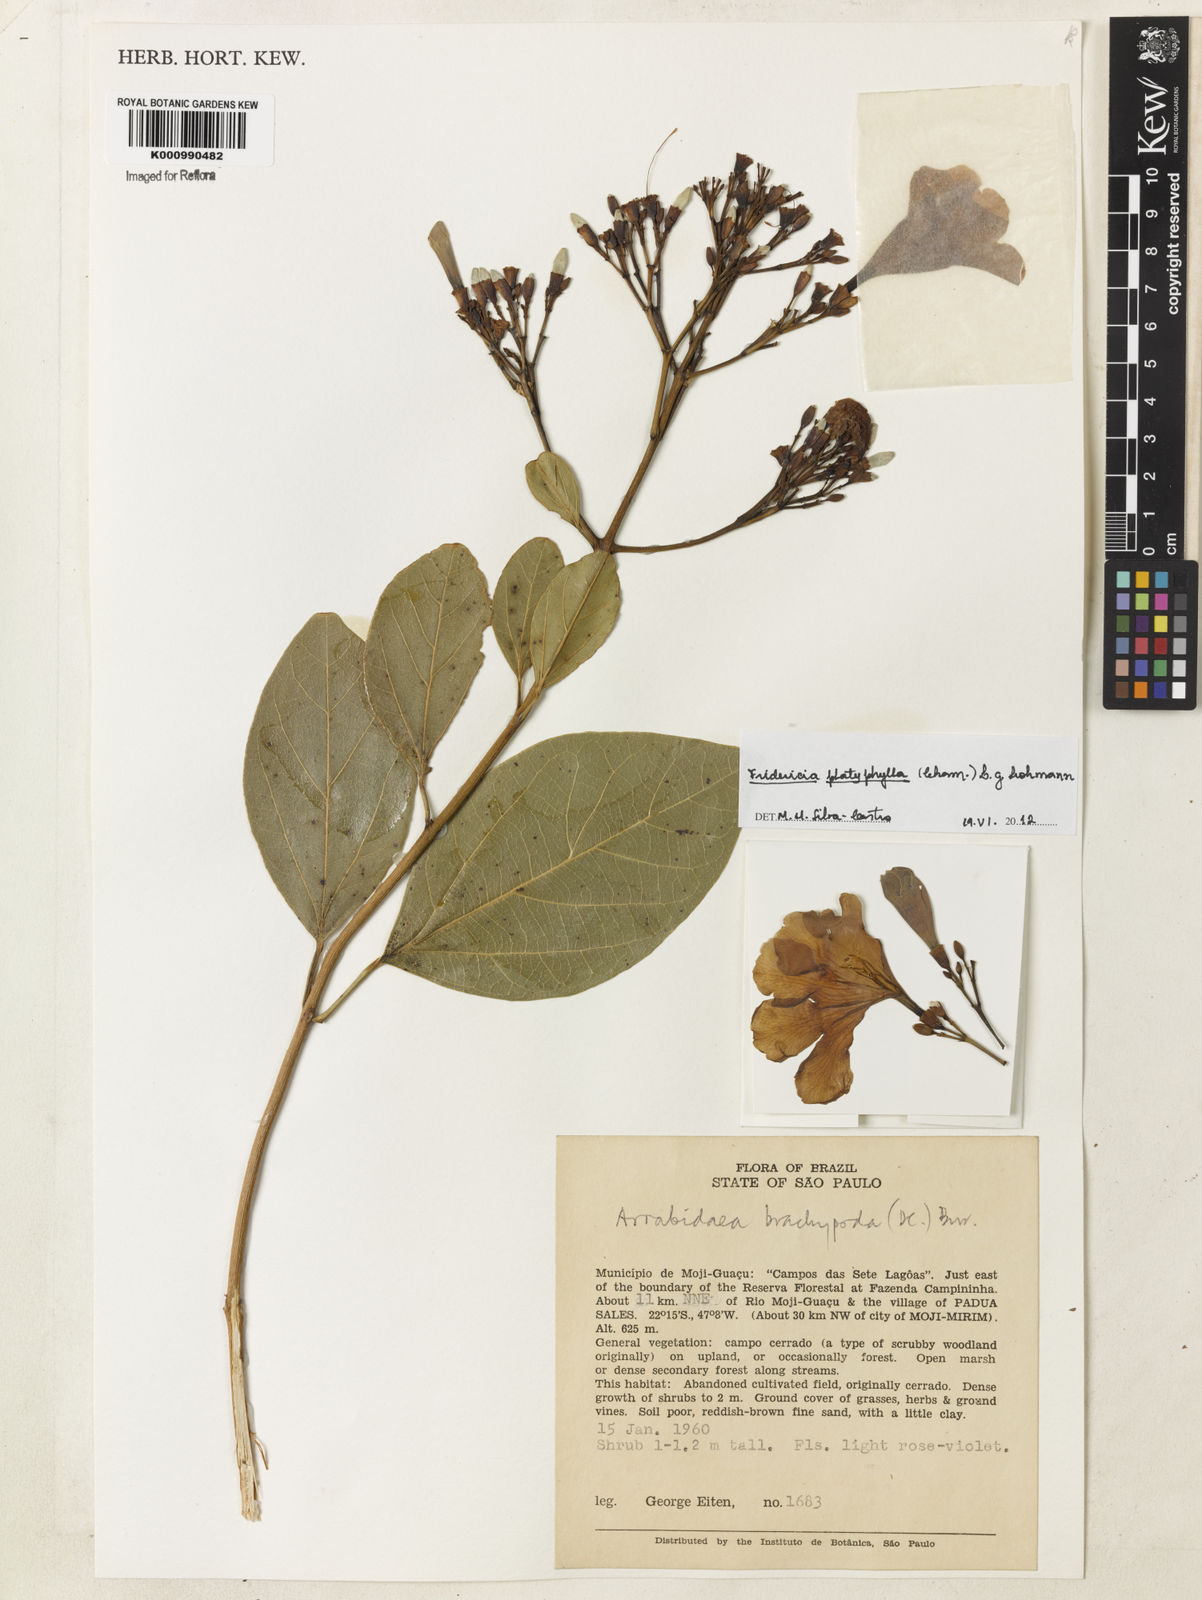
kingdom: Plantae
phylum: Tracheophyta
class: Magnoliopsida
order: Lamiales
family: Bignoniaceae
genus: Fridericia
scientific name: Fridericia platyphylla
